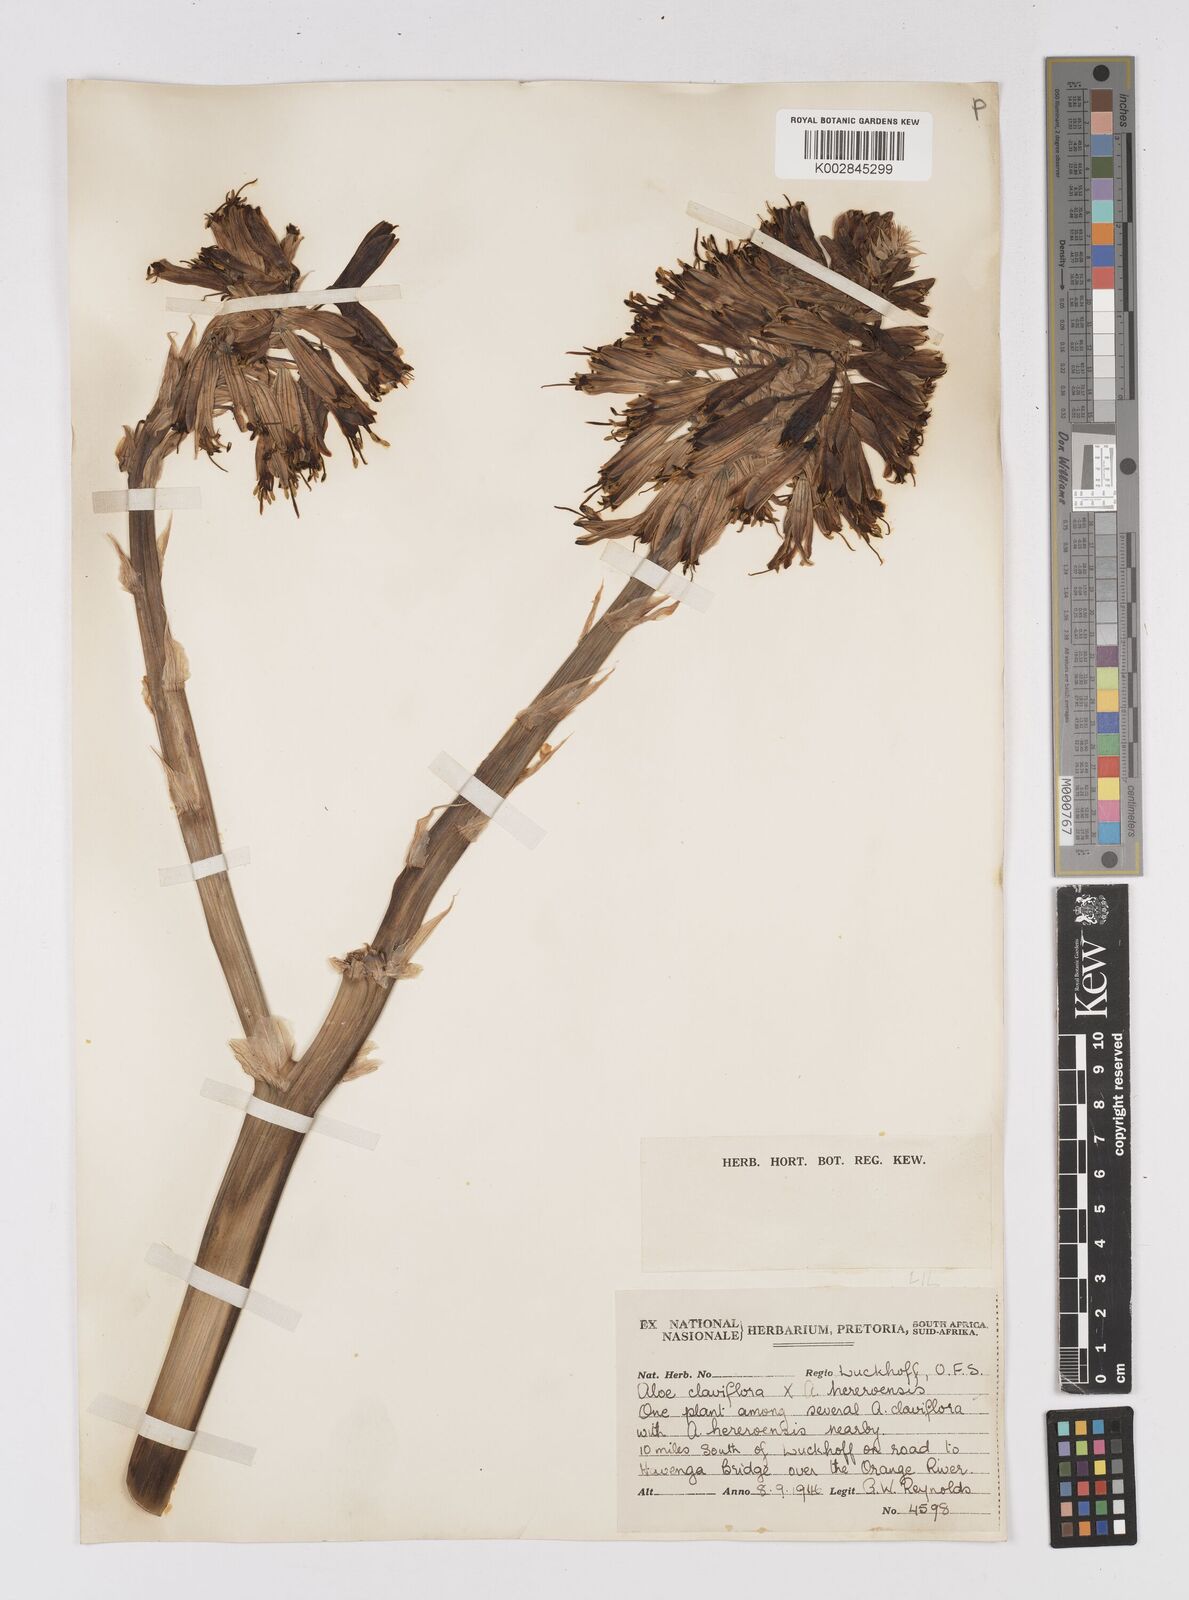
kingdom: Plantae
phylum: Tracheophyta
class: Liliopsida
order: Asparagales
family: Asphodelaceae
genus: Aloe
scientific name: Aloe
